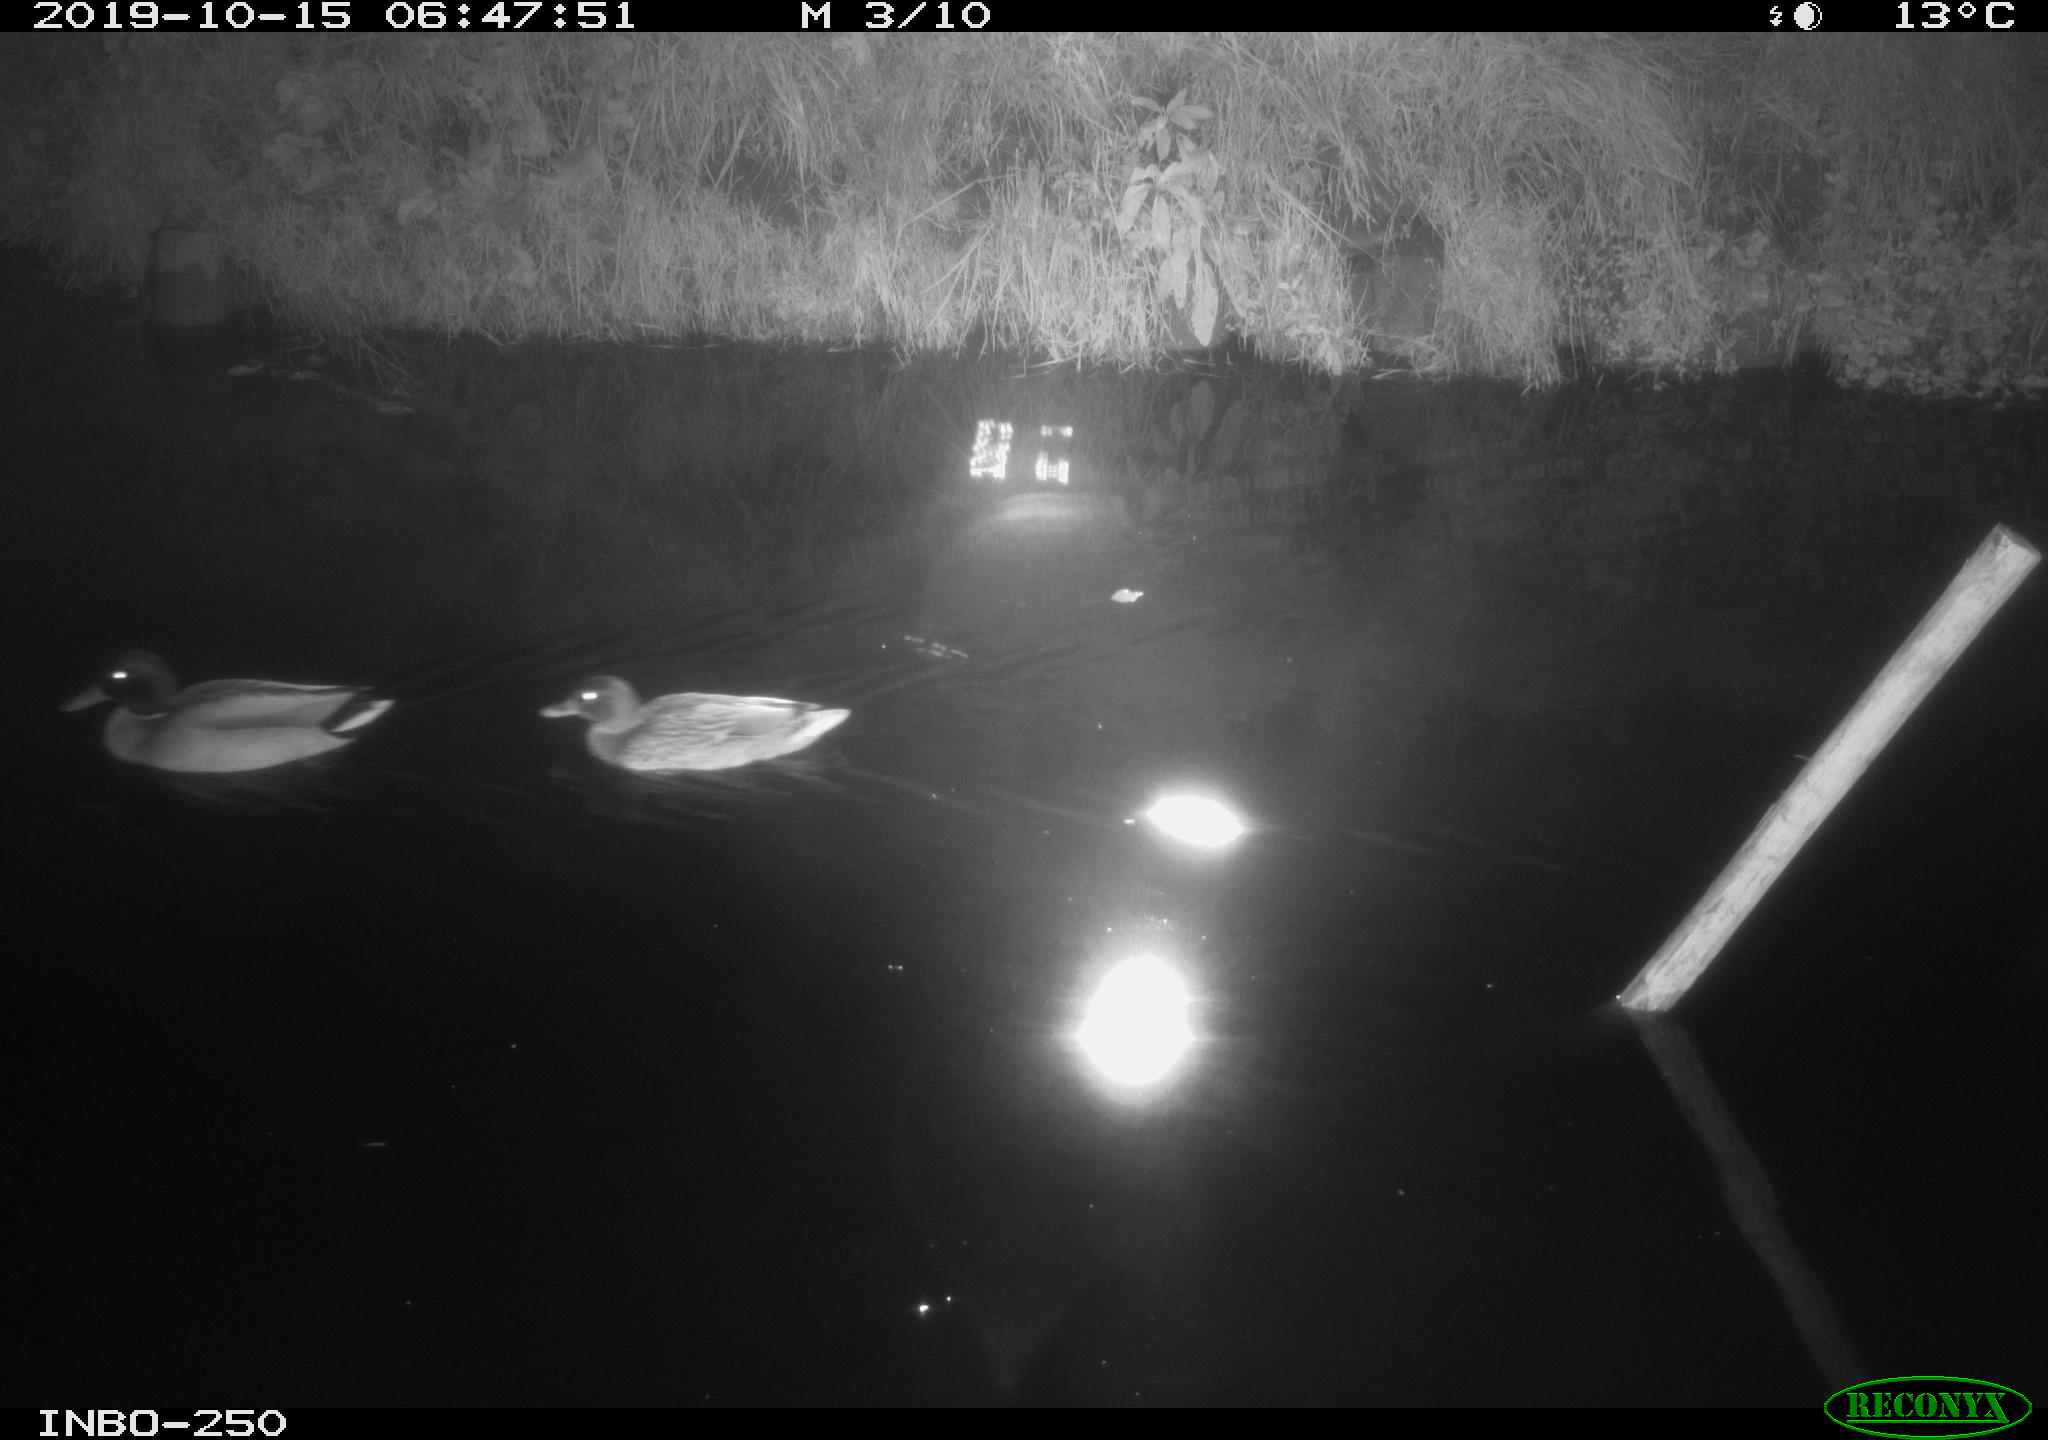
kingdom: Animalia
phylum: Chordata
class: Aves
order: Anseriformes
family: Anatidae
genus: Anas
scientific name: Anas platyrhynchos
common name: Mallard
